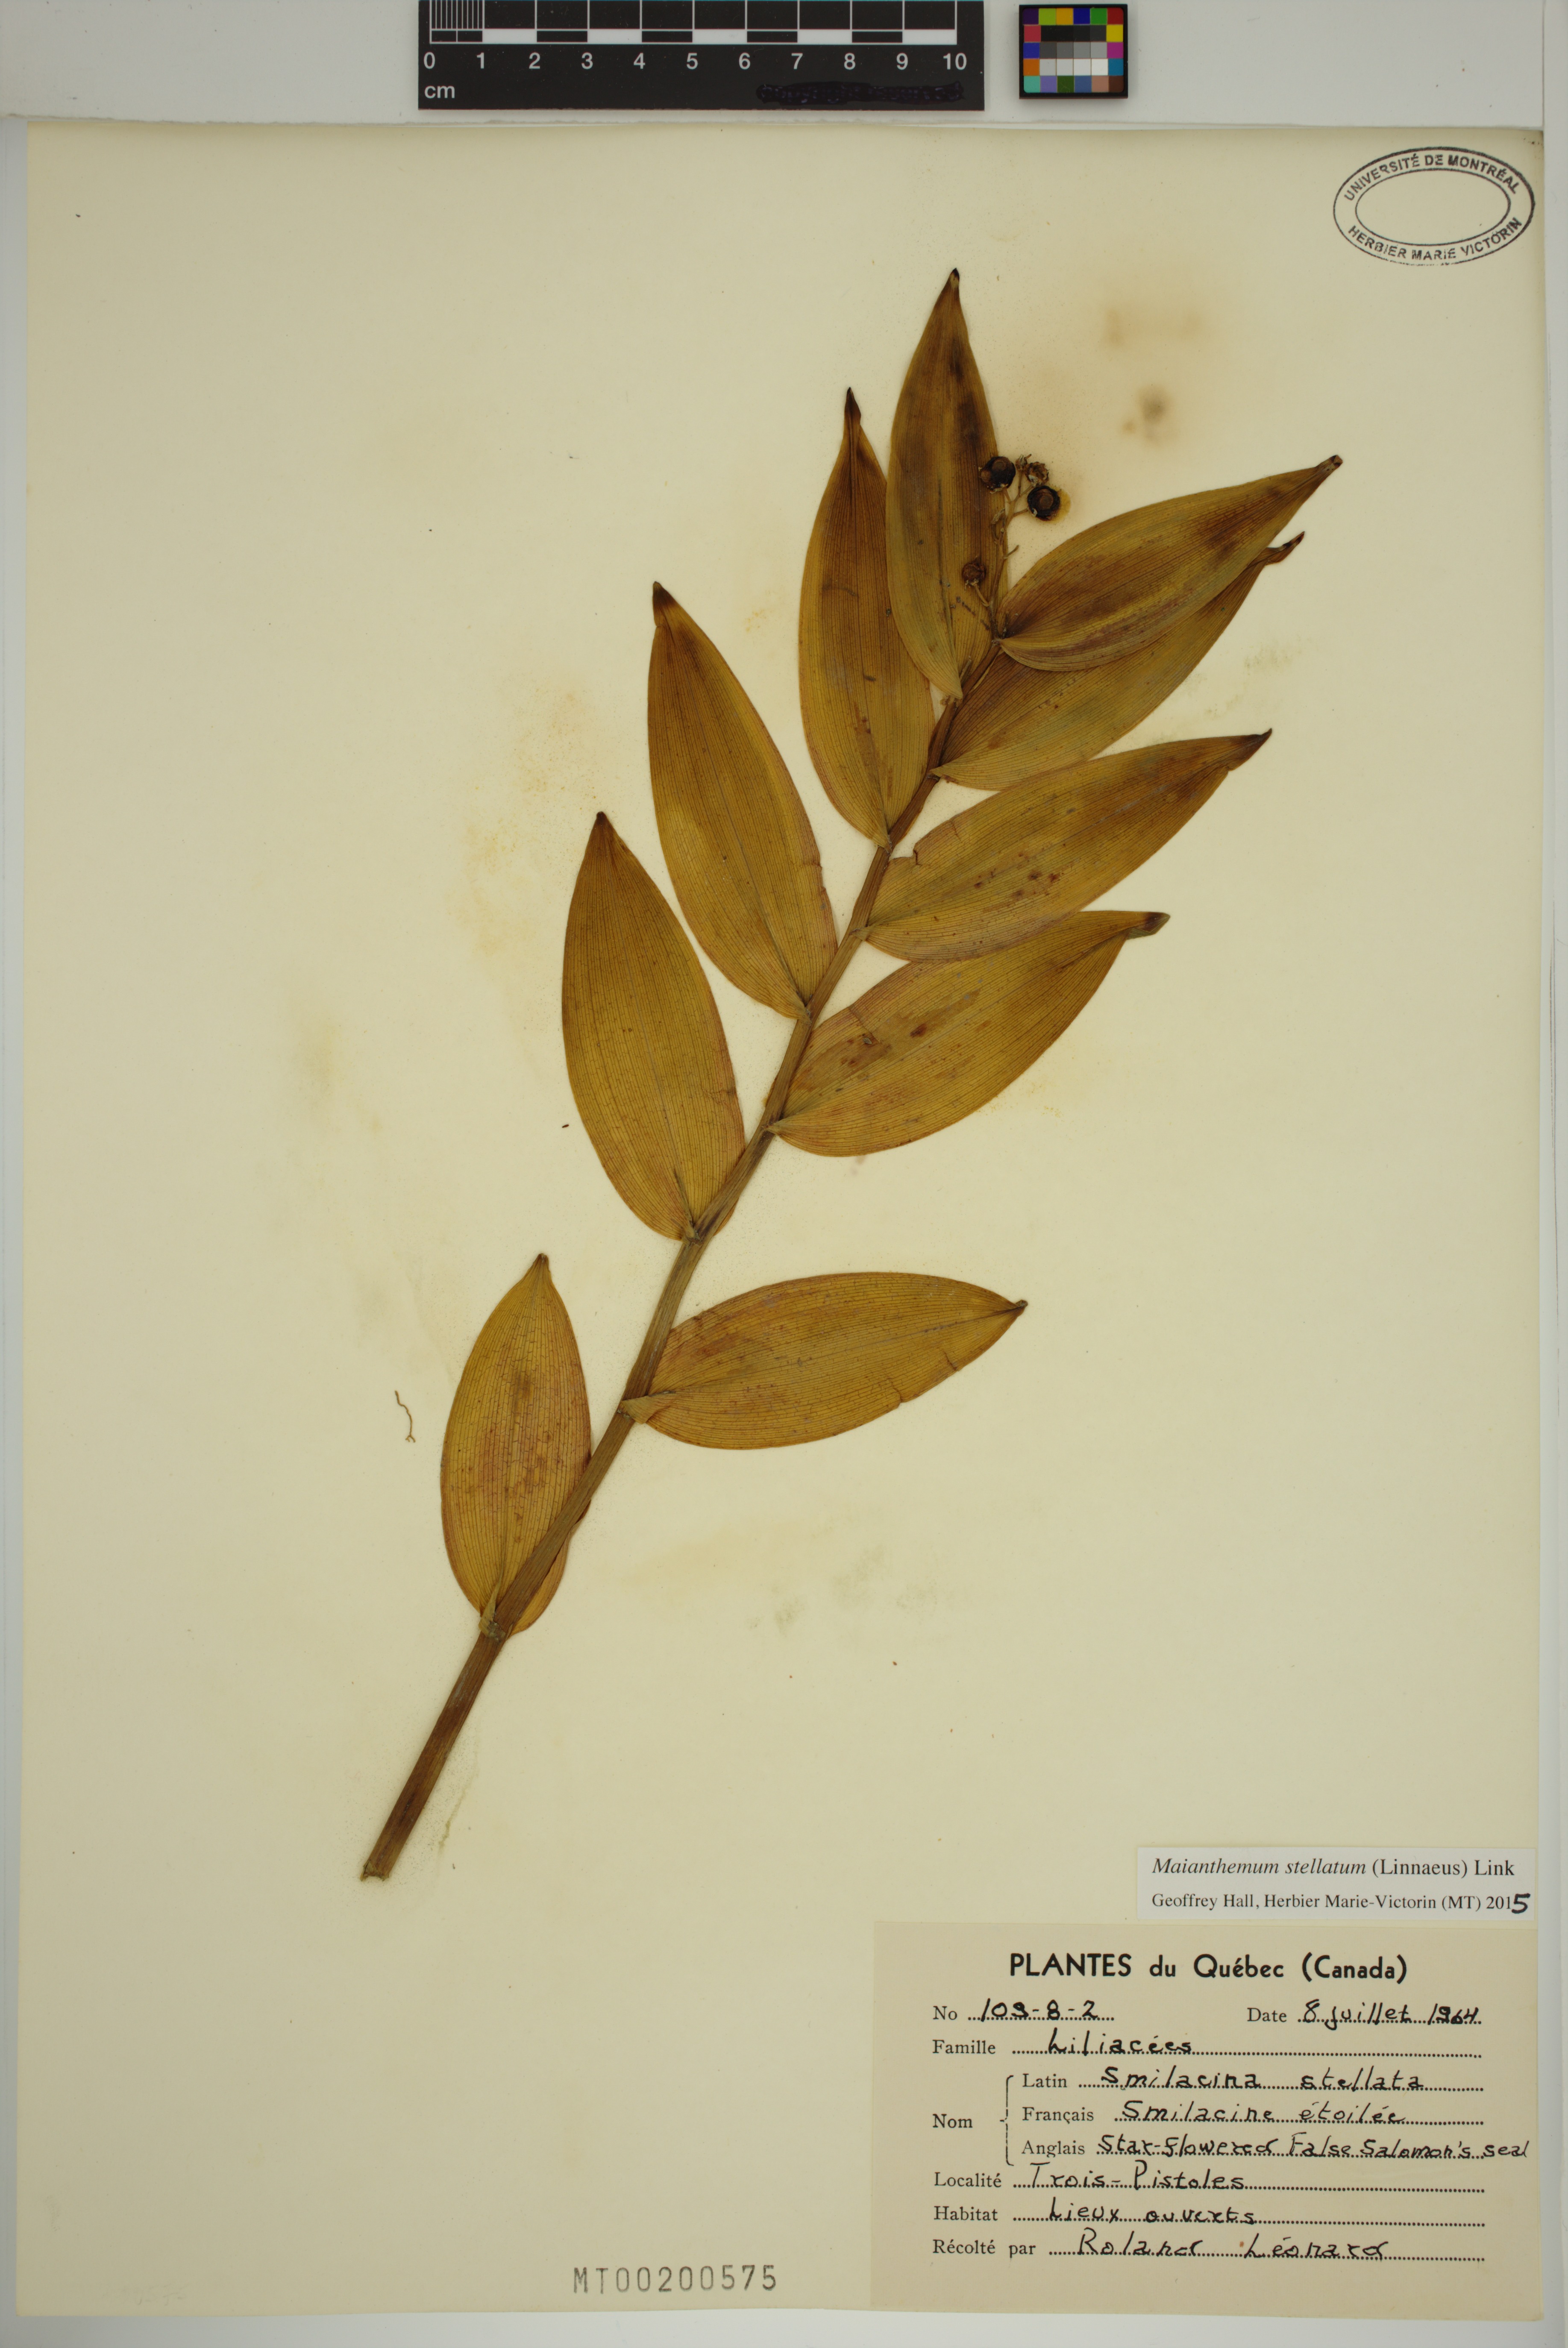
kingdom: Plantae
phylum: Tracheophyta
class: Liliopsida
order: Asparagales
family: Asparagaceae
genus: Maianthemum
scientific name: Maianthemum stellatum
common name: Little false solomon's seal
